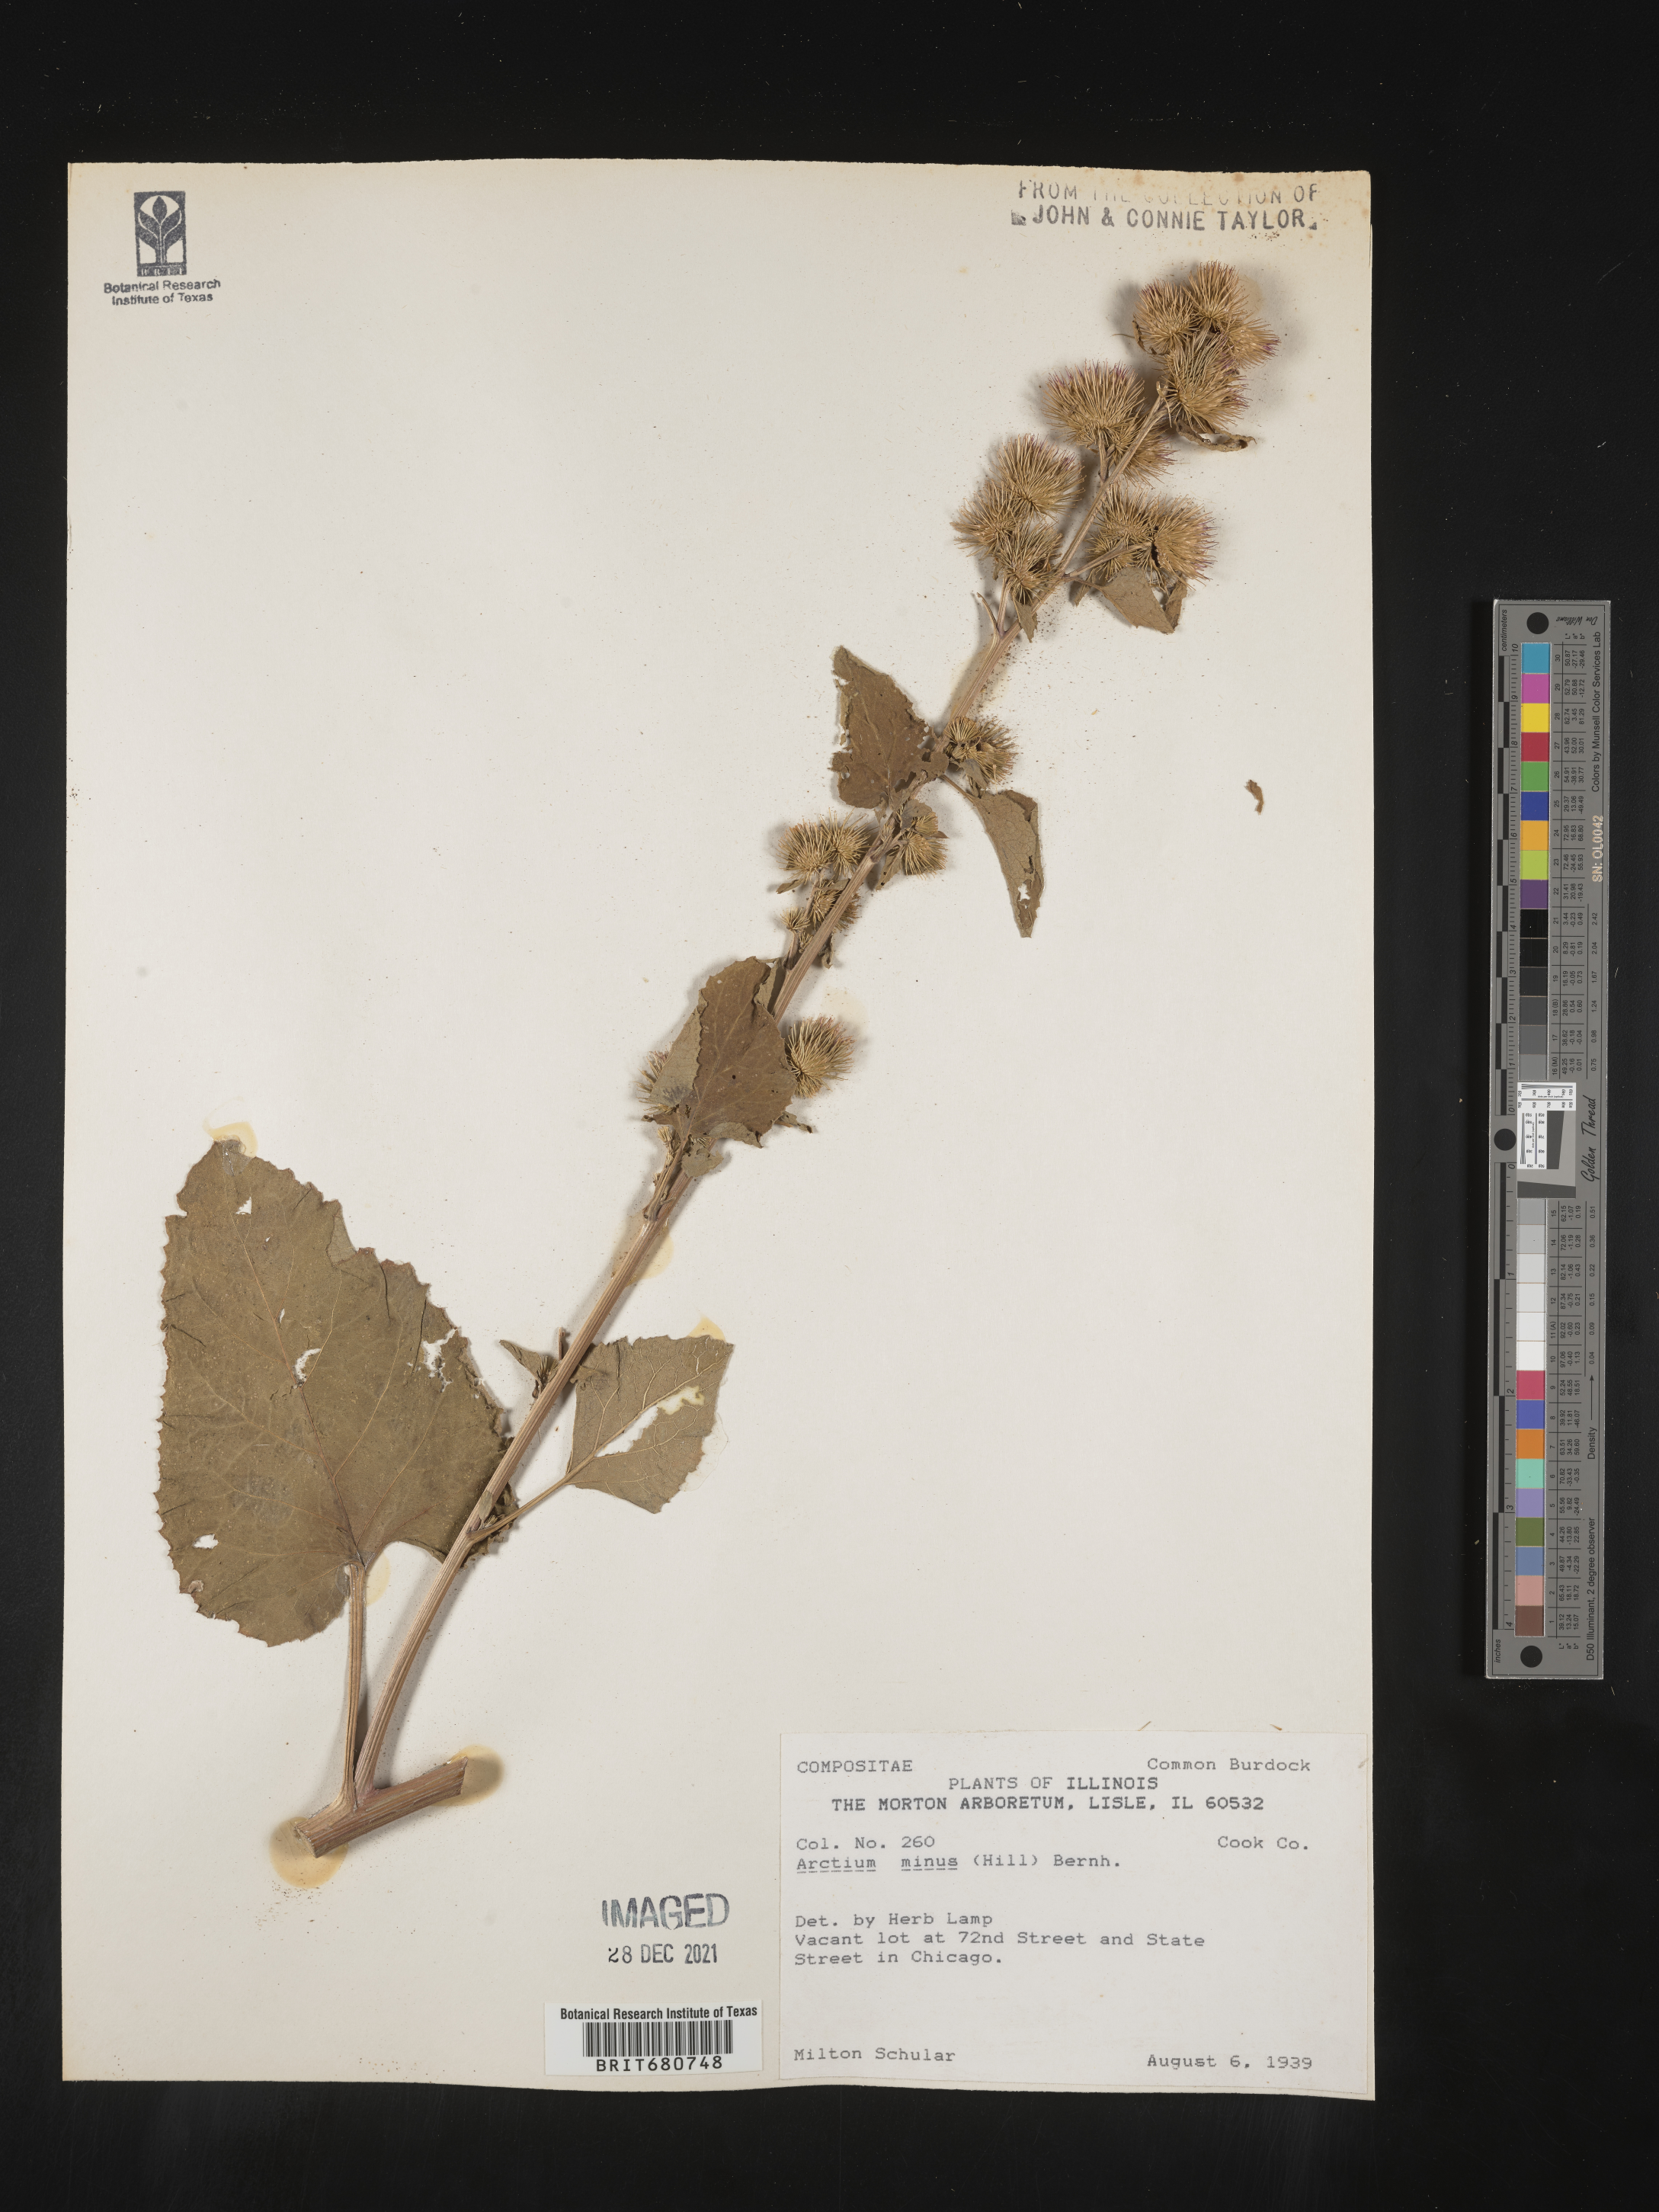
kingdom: Plantae
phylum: Tracheophyta
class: Magnoliopsida
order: Asterales
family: Asteraceae
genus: Arctium
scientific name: Arctium minus
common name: Lesser burdock
